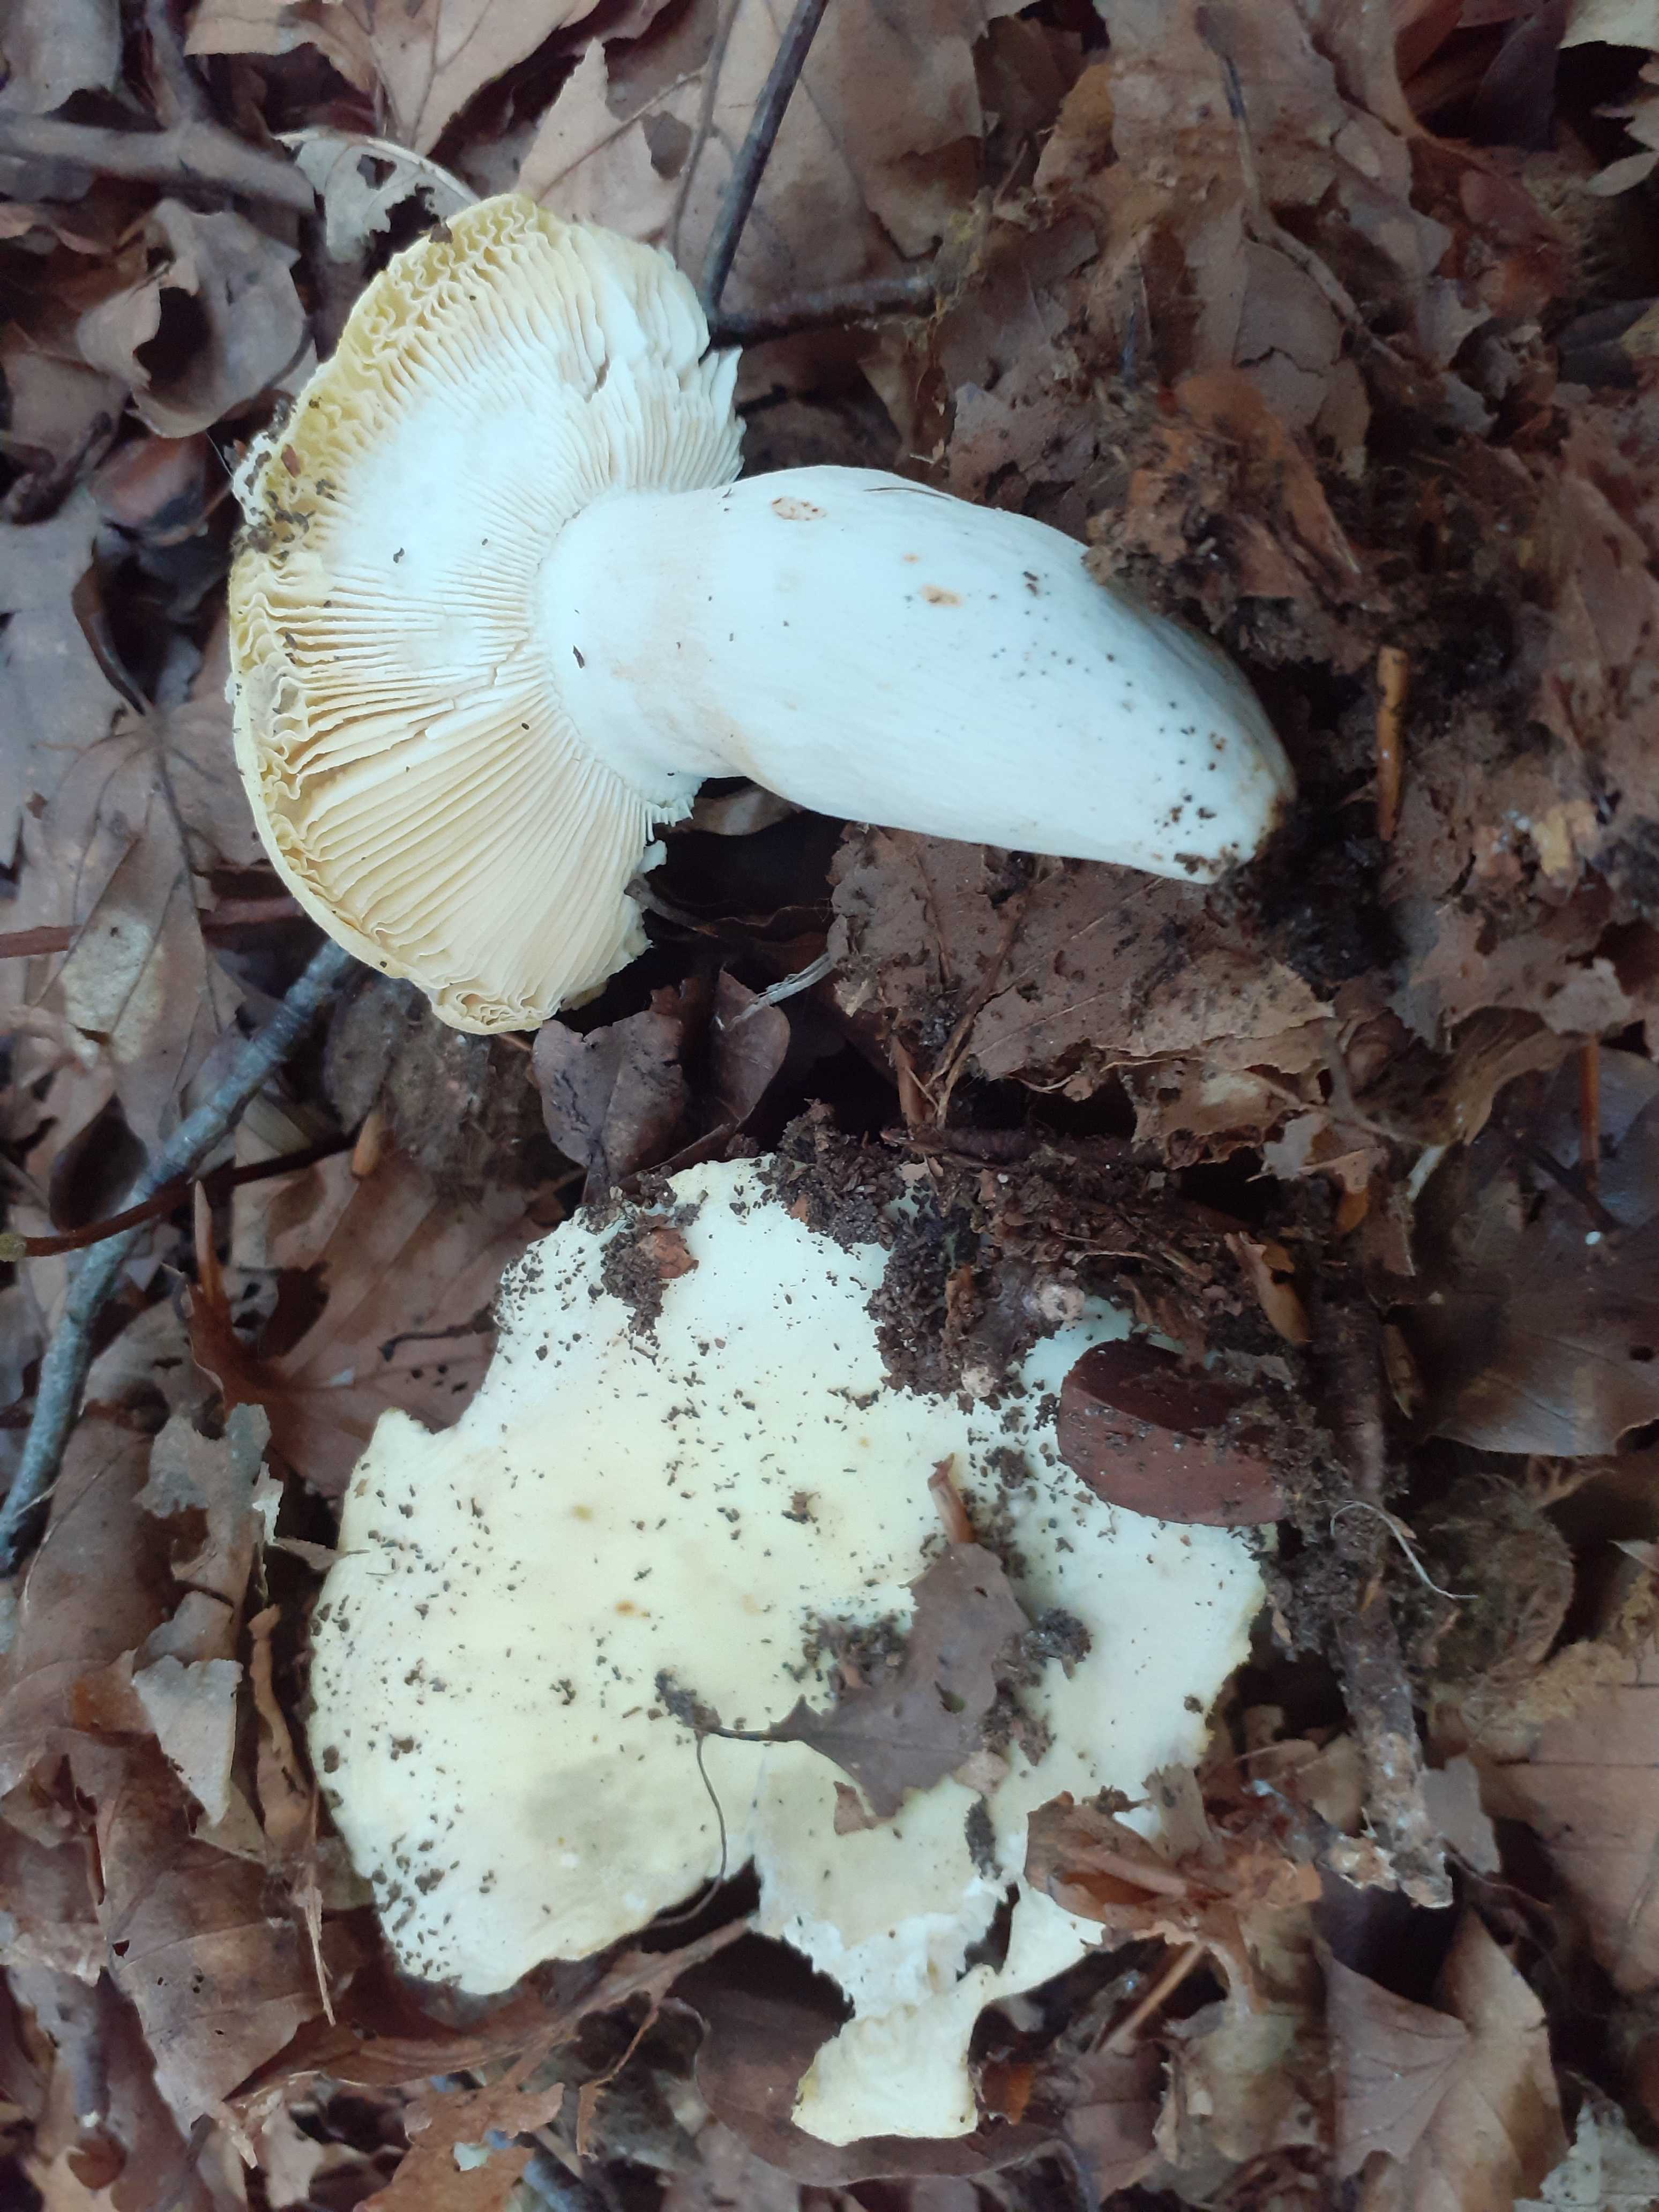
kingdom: Fungi
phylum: Basidiomycota
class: Agaricomycetes
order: Russulales
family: Russulaceae
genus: Russula
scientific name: Russula violeipes
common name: ferskengul skørhat
